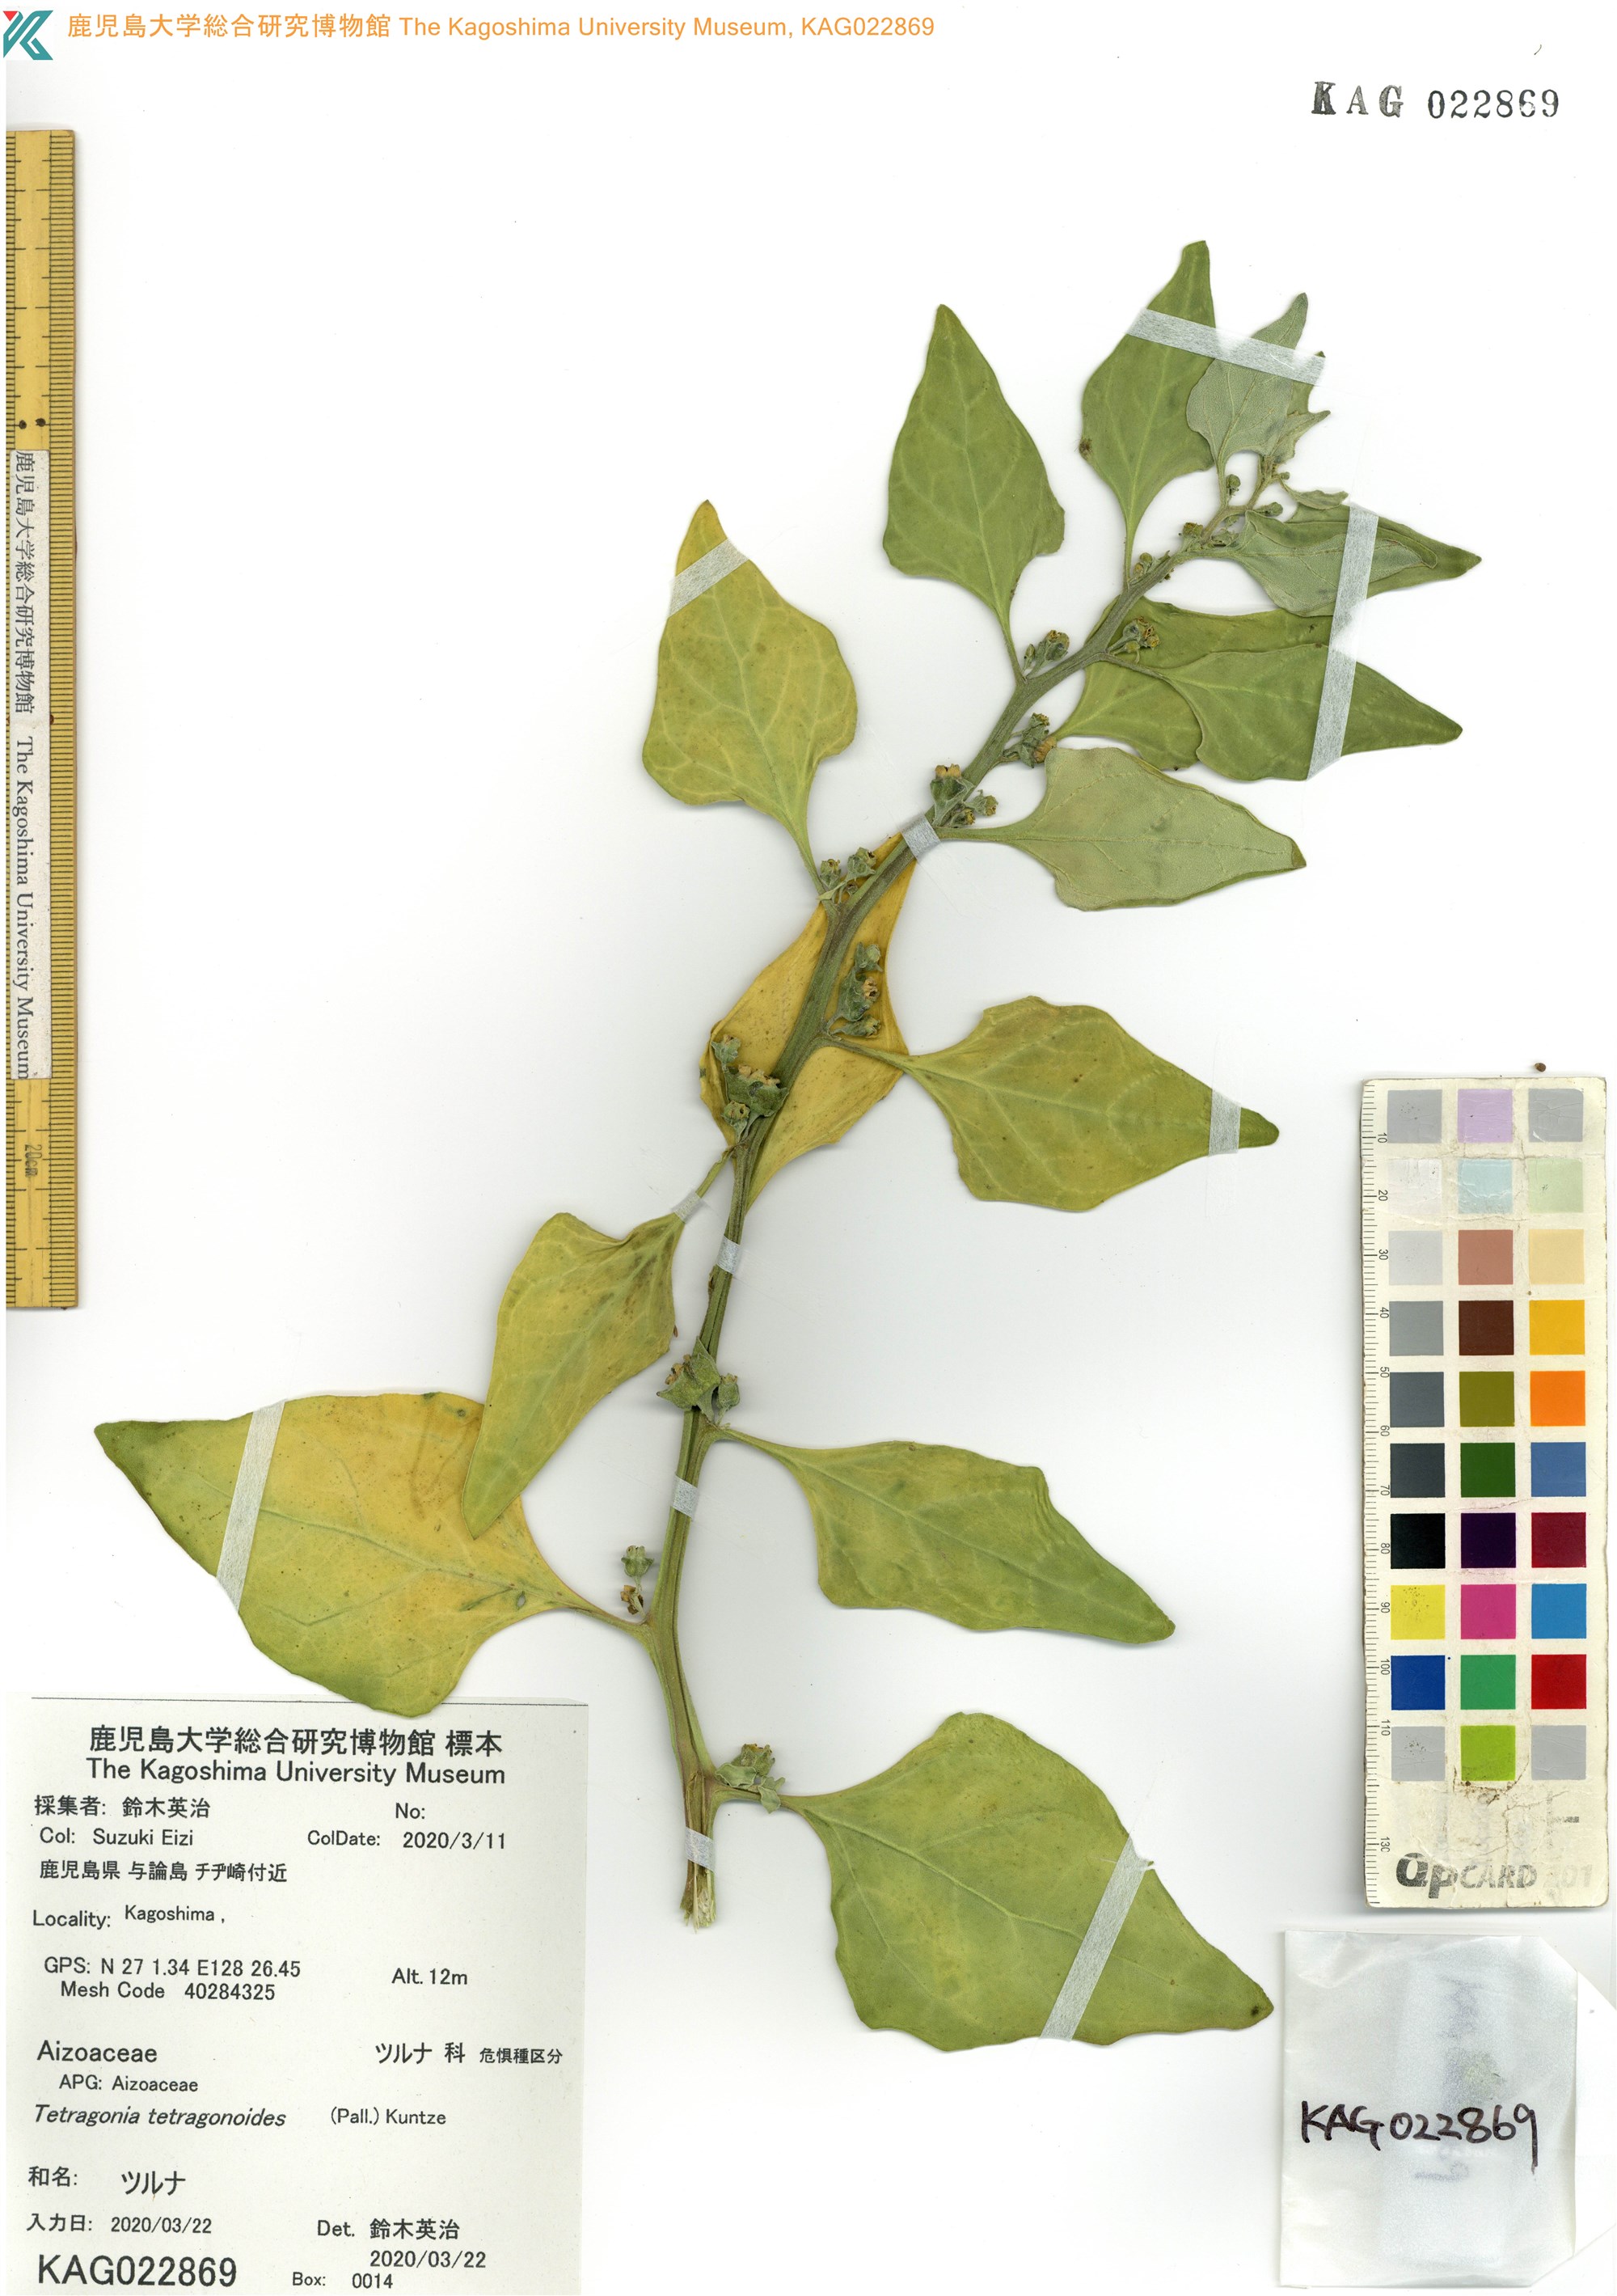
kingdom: Plantae
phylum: Tracheophyta
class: Magnoliopsida
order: Caryophyllales
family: Aizoaceae
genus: Tetragonia
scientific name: Tetragonia tetragonoides
